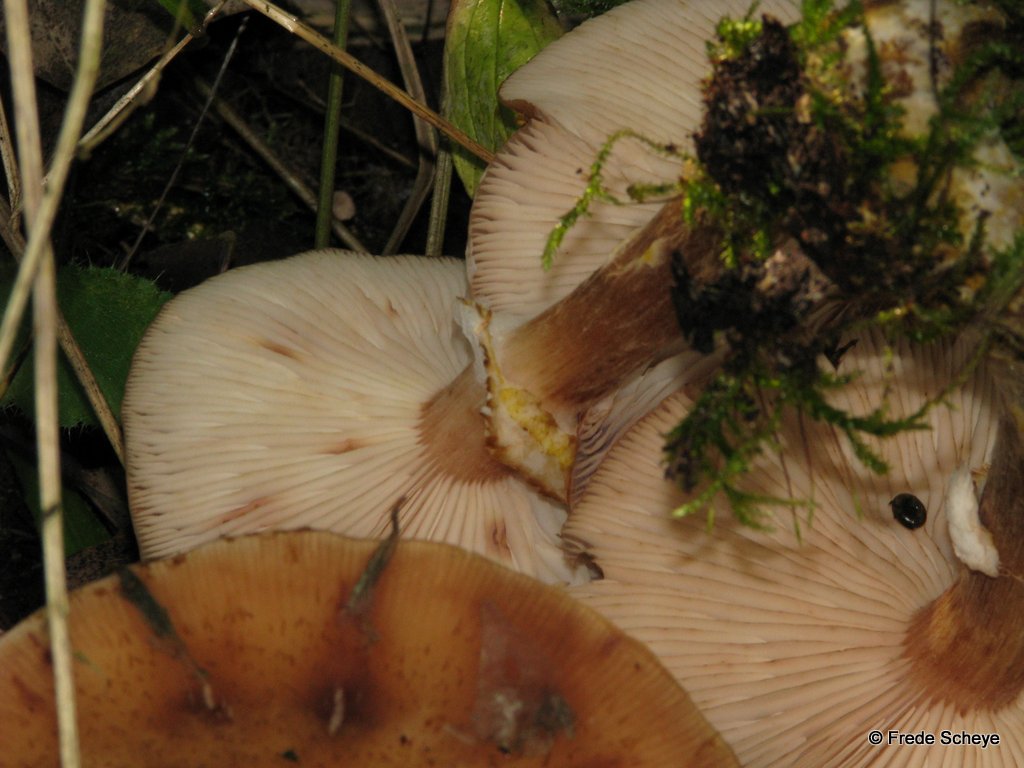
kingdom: Fungi
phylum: Basidiomycota
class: Agaricomycetes
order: Agaricales
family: Physalacriaceae
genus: Armillaria
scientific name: Armillaria lutea
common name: køllestokket honningsvamp
